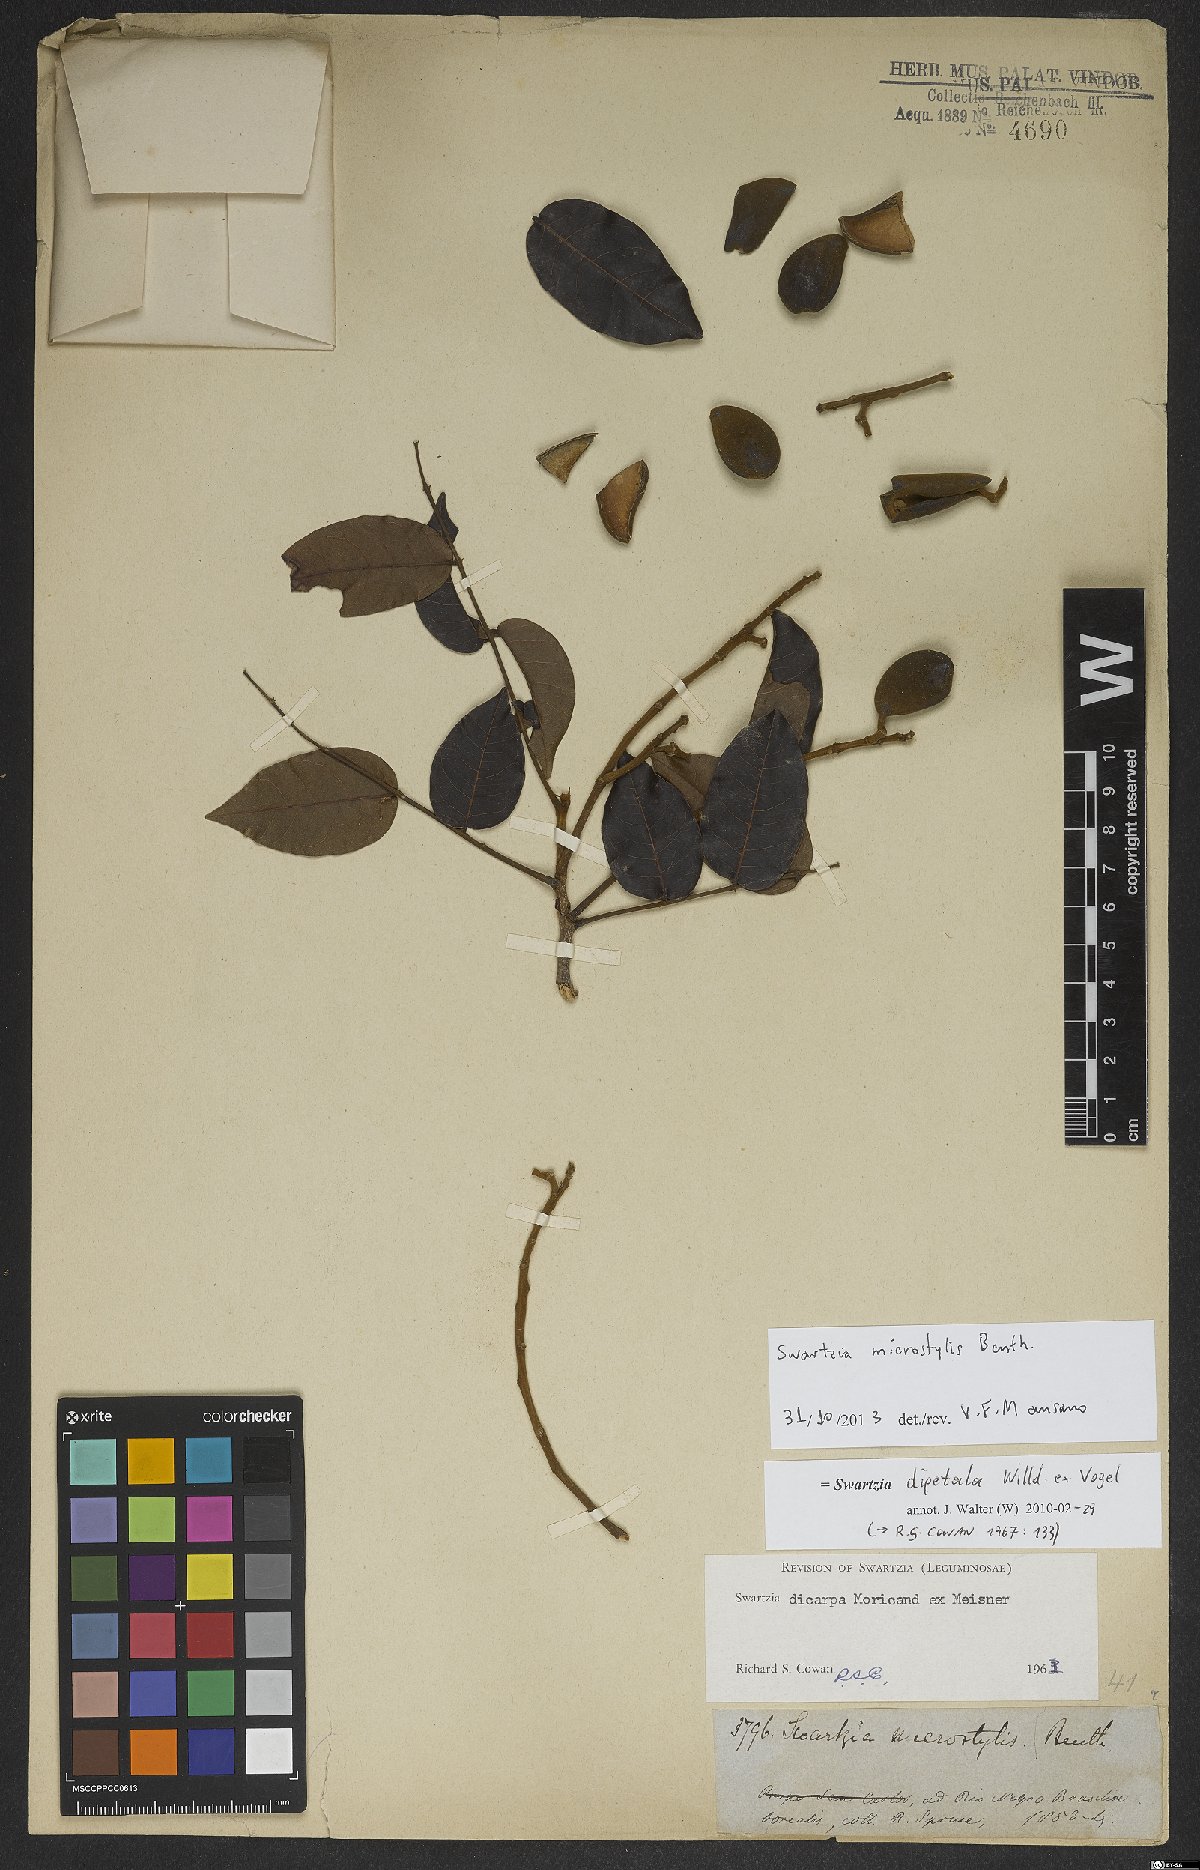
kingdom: Plantae
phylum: Tracheophyta
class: Magnoliopsida
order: Fabales
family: Fabaceae
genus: Swartzia
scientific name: Swartzia dipetala
